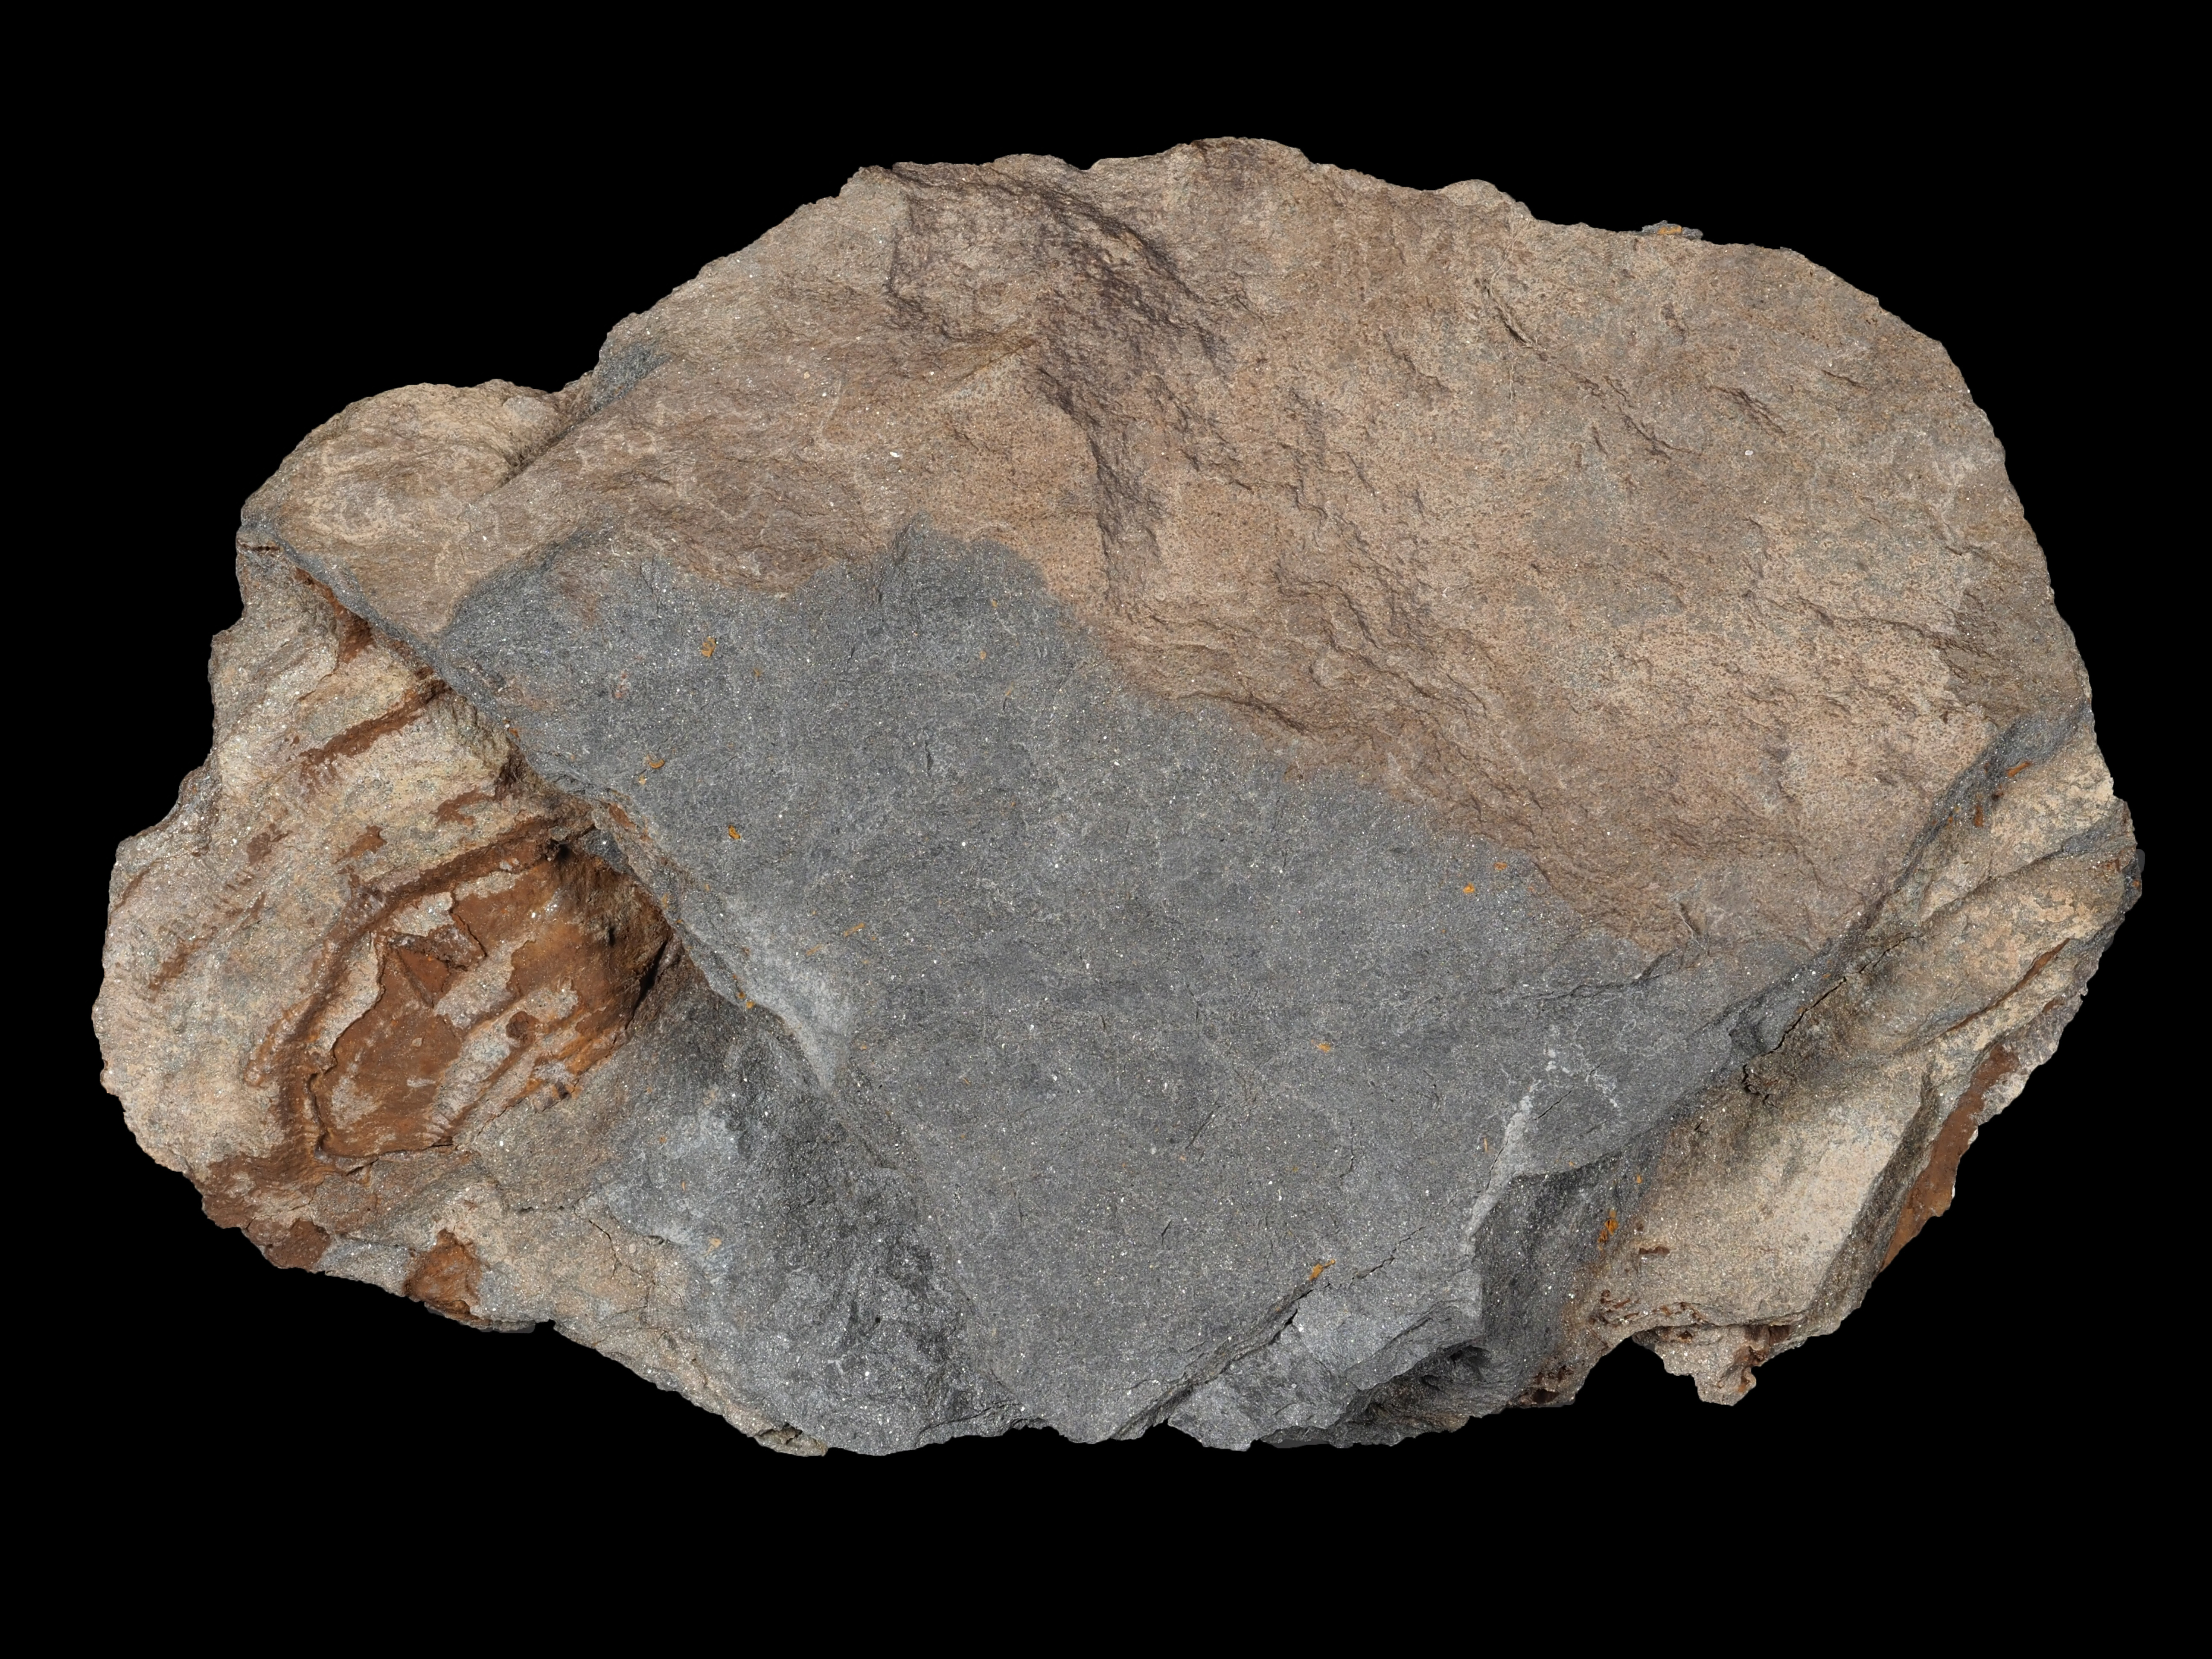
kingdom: Animalia
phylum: Brachiopoda
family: Strophomenidae
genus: Leptaena
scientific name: Leptaena rhomboidalis
